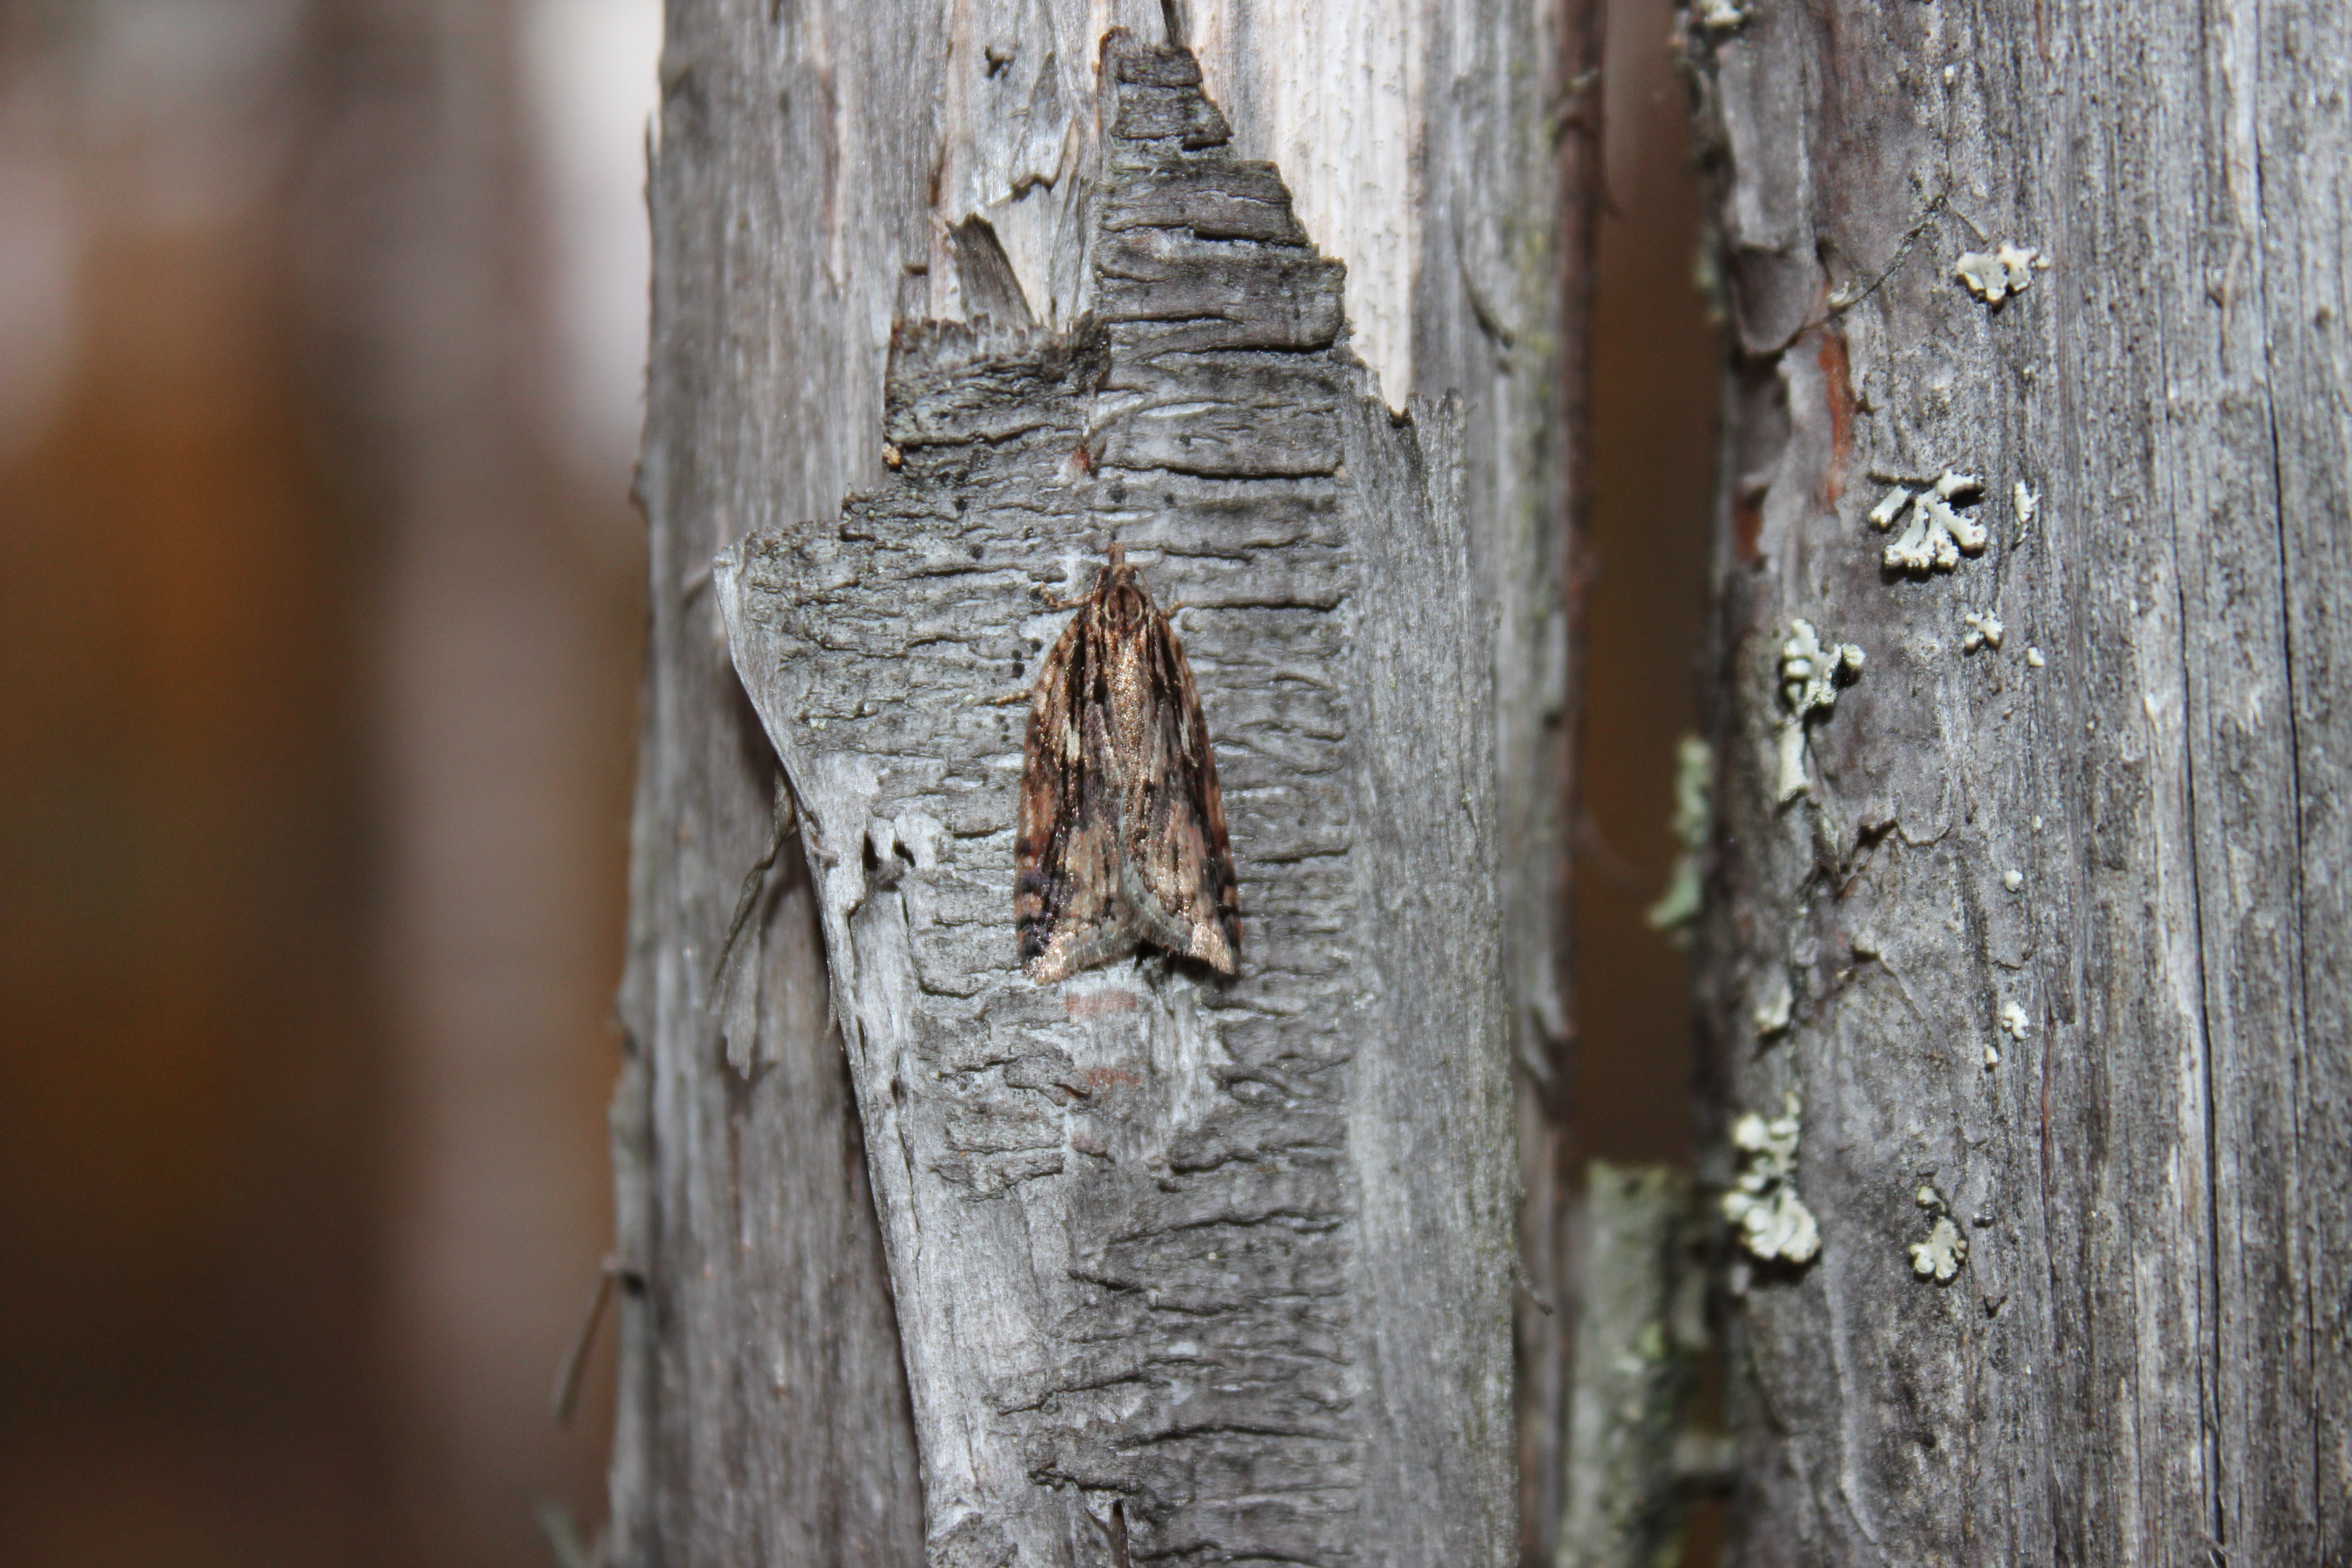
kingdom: Animalia
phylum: Arthropoda
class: Insecta
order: Lepidoptera
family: Tortricidae
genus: Acleris
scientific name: Acleris umbrana
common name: Dark-streaked button
